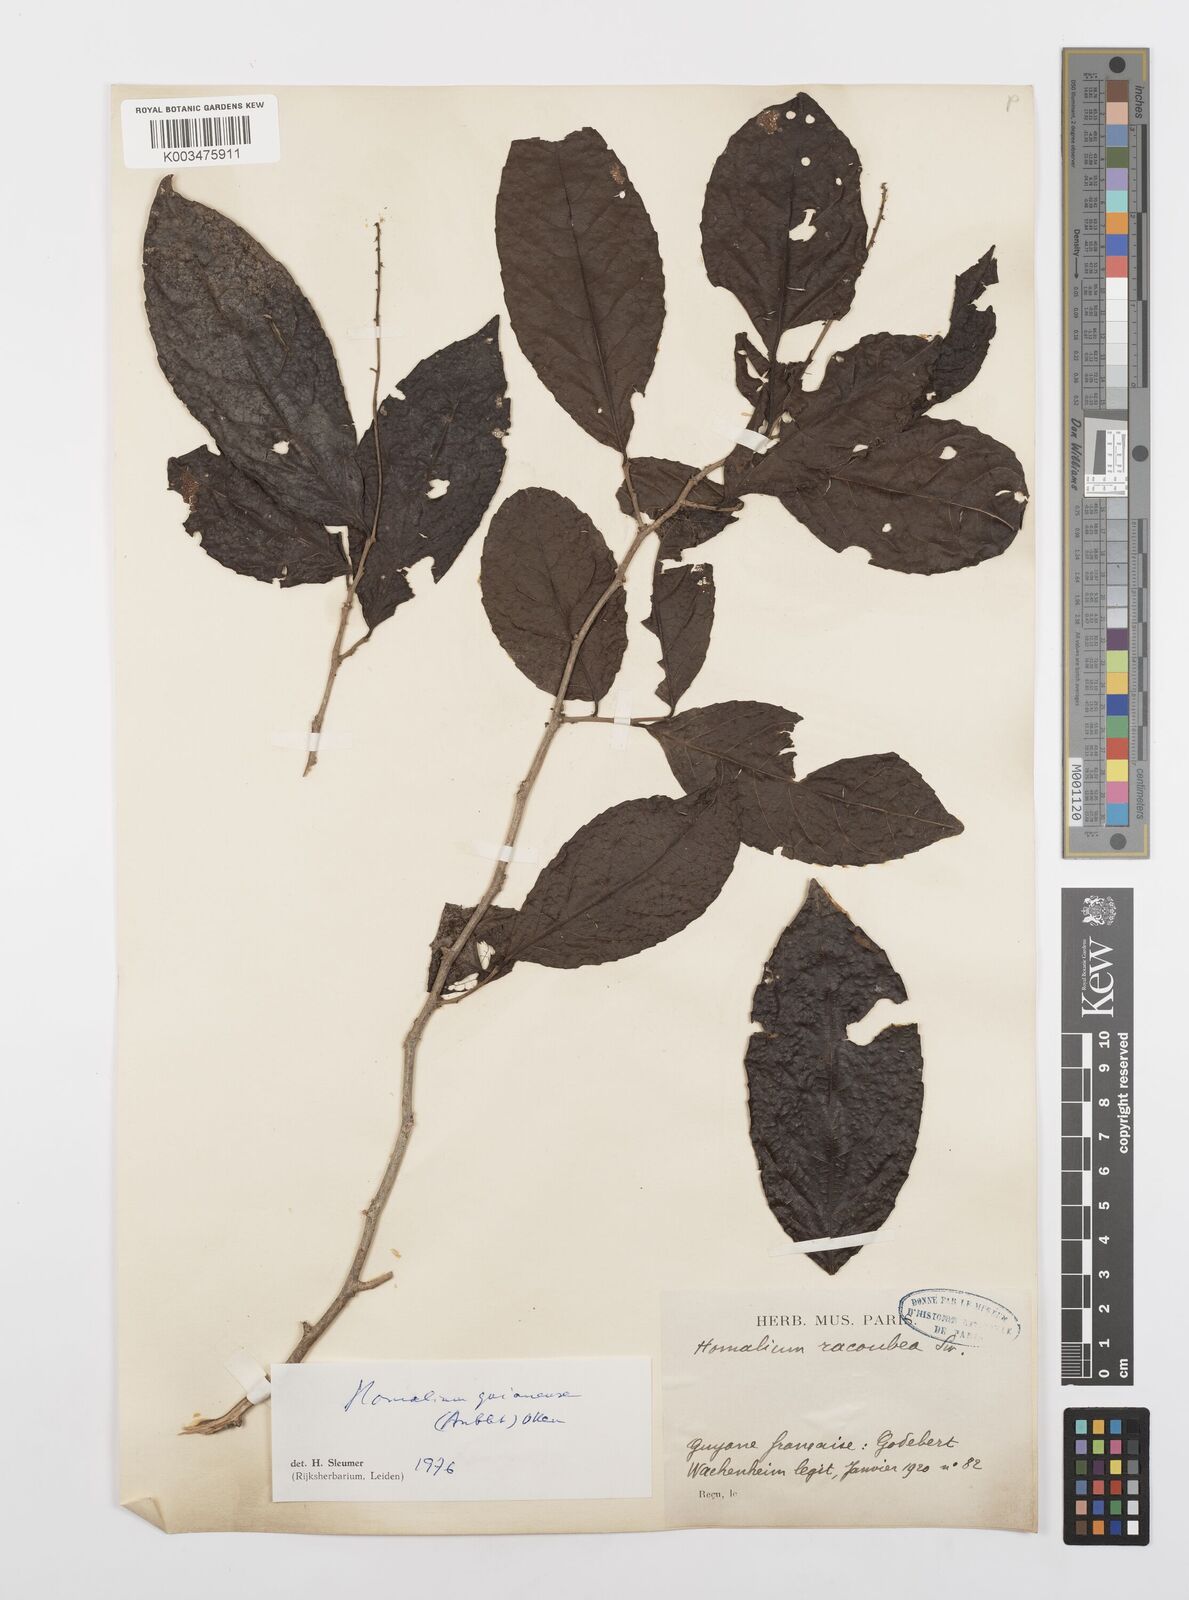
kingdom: Plantae
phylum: Tracheophyta
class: Magnoliopsida
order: Malpighiales
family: Salicaceae
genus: Homalium
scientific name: Homalium guianense
